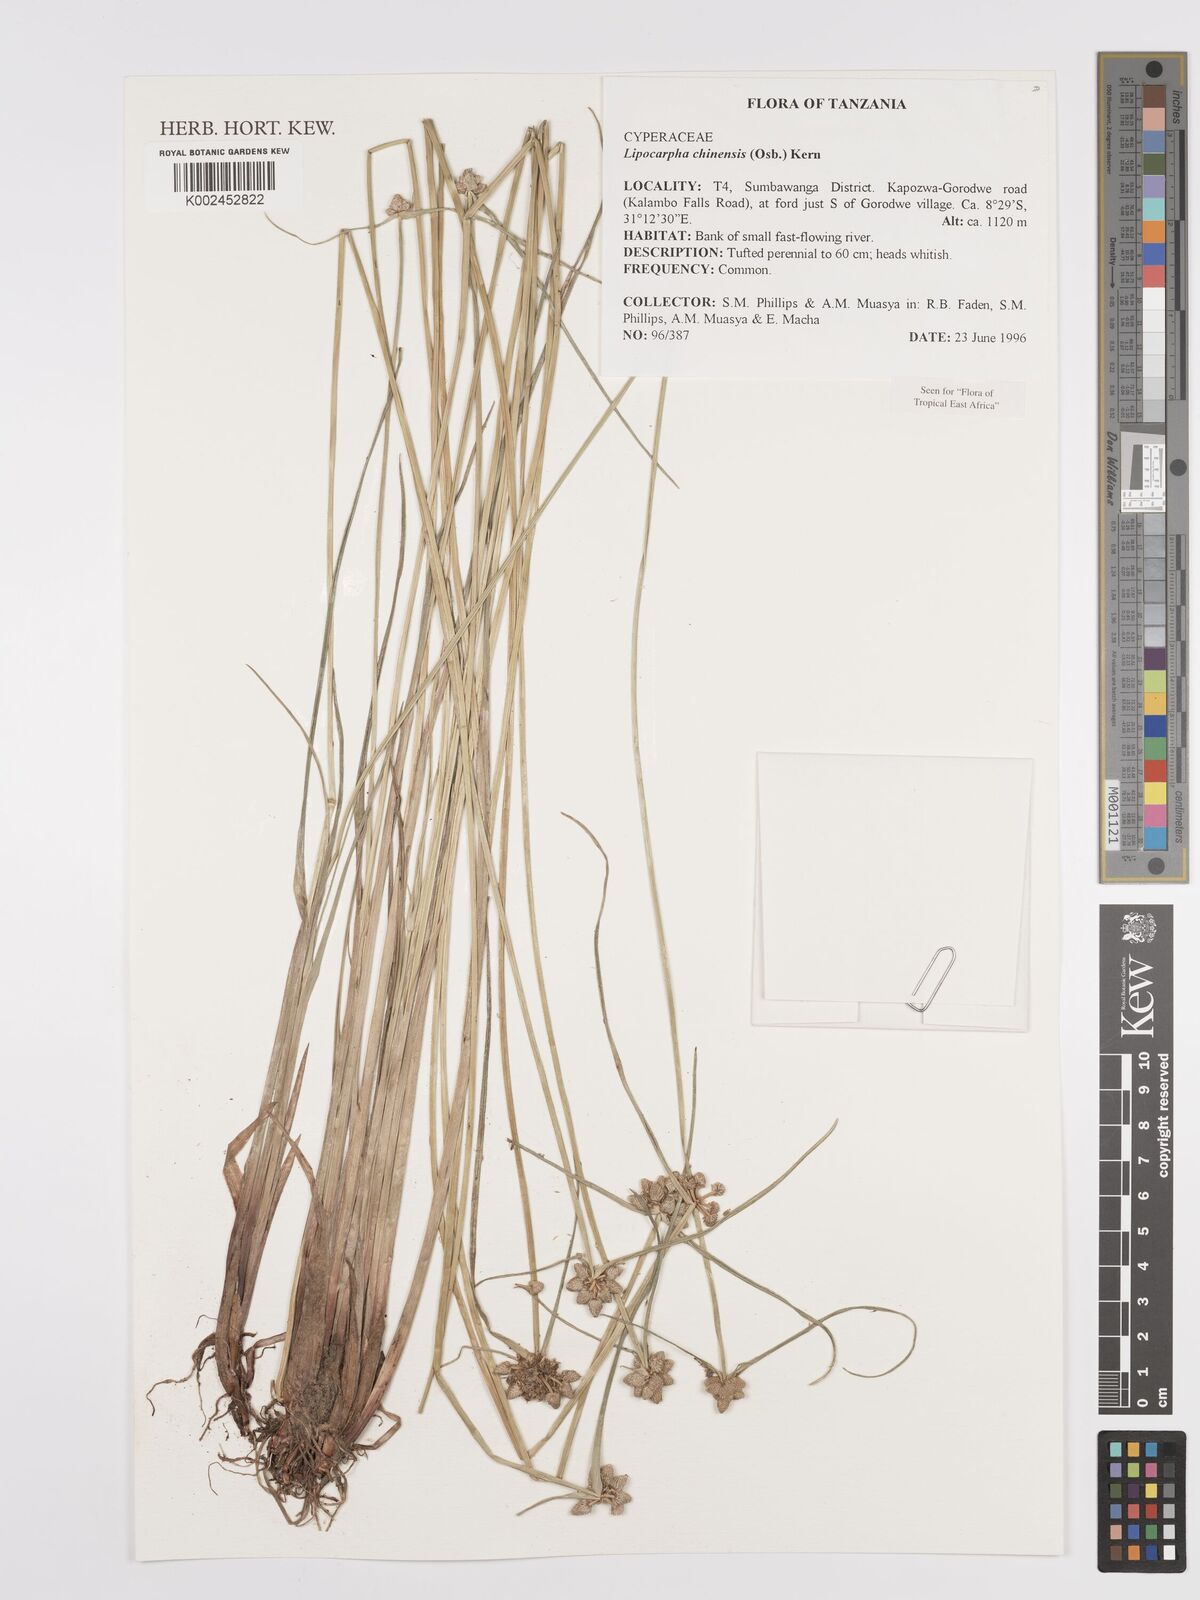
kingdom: Plantae
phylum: Tracheophyta
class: Liliopsida
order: Poales
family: Cyperaceae
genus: Cyperus
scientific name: Cyperus
